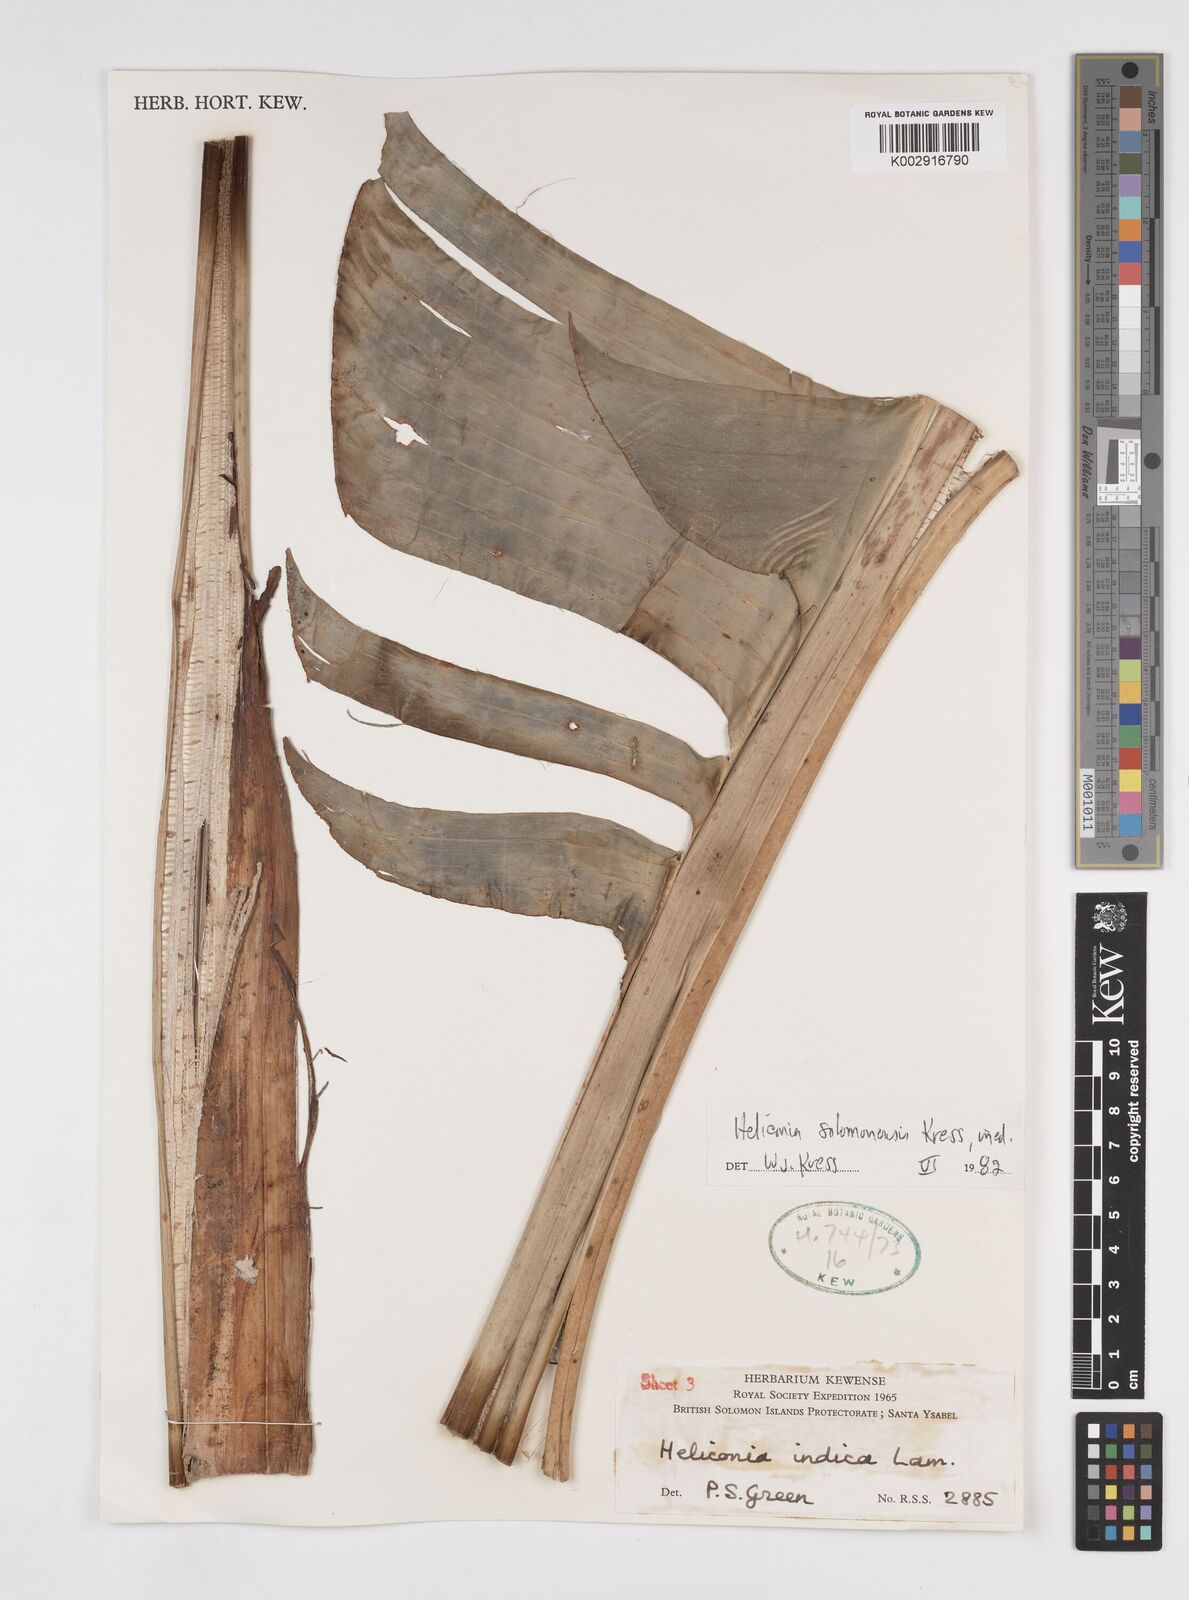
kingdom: Plantae
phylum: Tracheophyta
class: Liliopsida
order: Zingiberales
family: Heliconiaceae
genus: Heliconia
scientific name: Heliconia solomonensis
